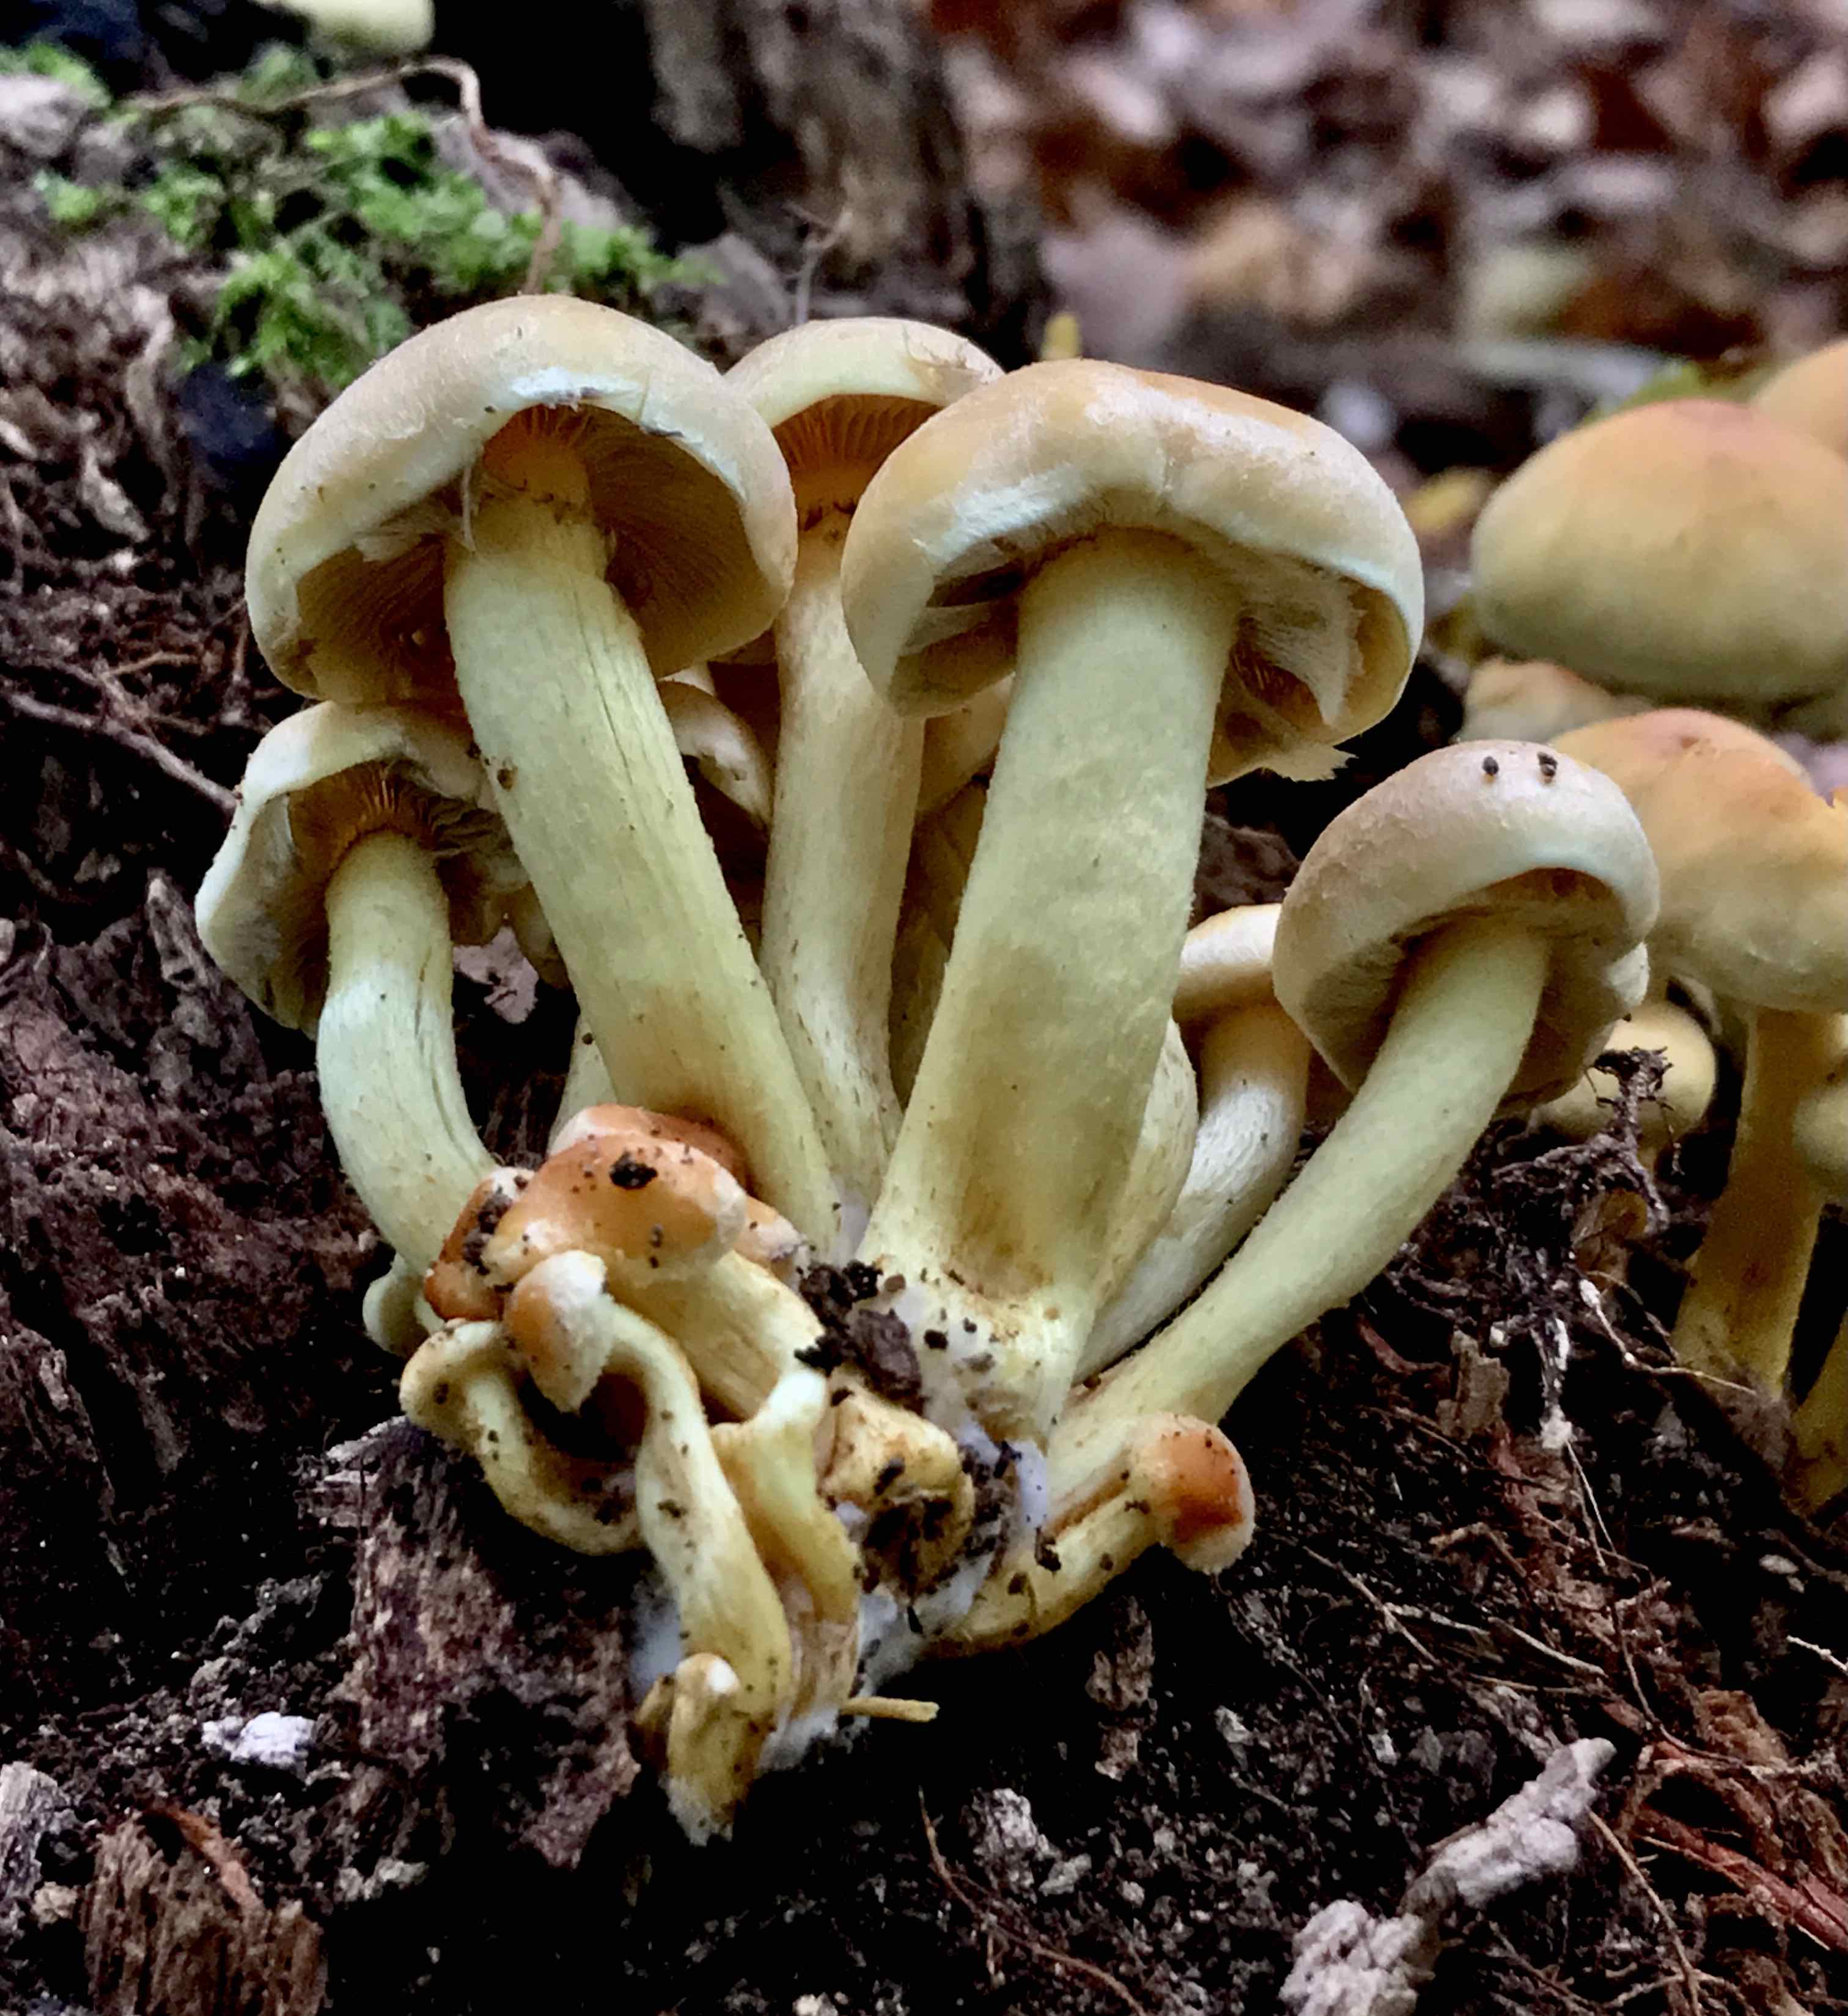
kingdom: Fungi
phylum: Basidiomycota
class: Agaricomycetes
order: Agaricales
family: Strophariaceae
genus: Hypholoma
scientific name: Hypholoma fasciculare
